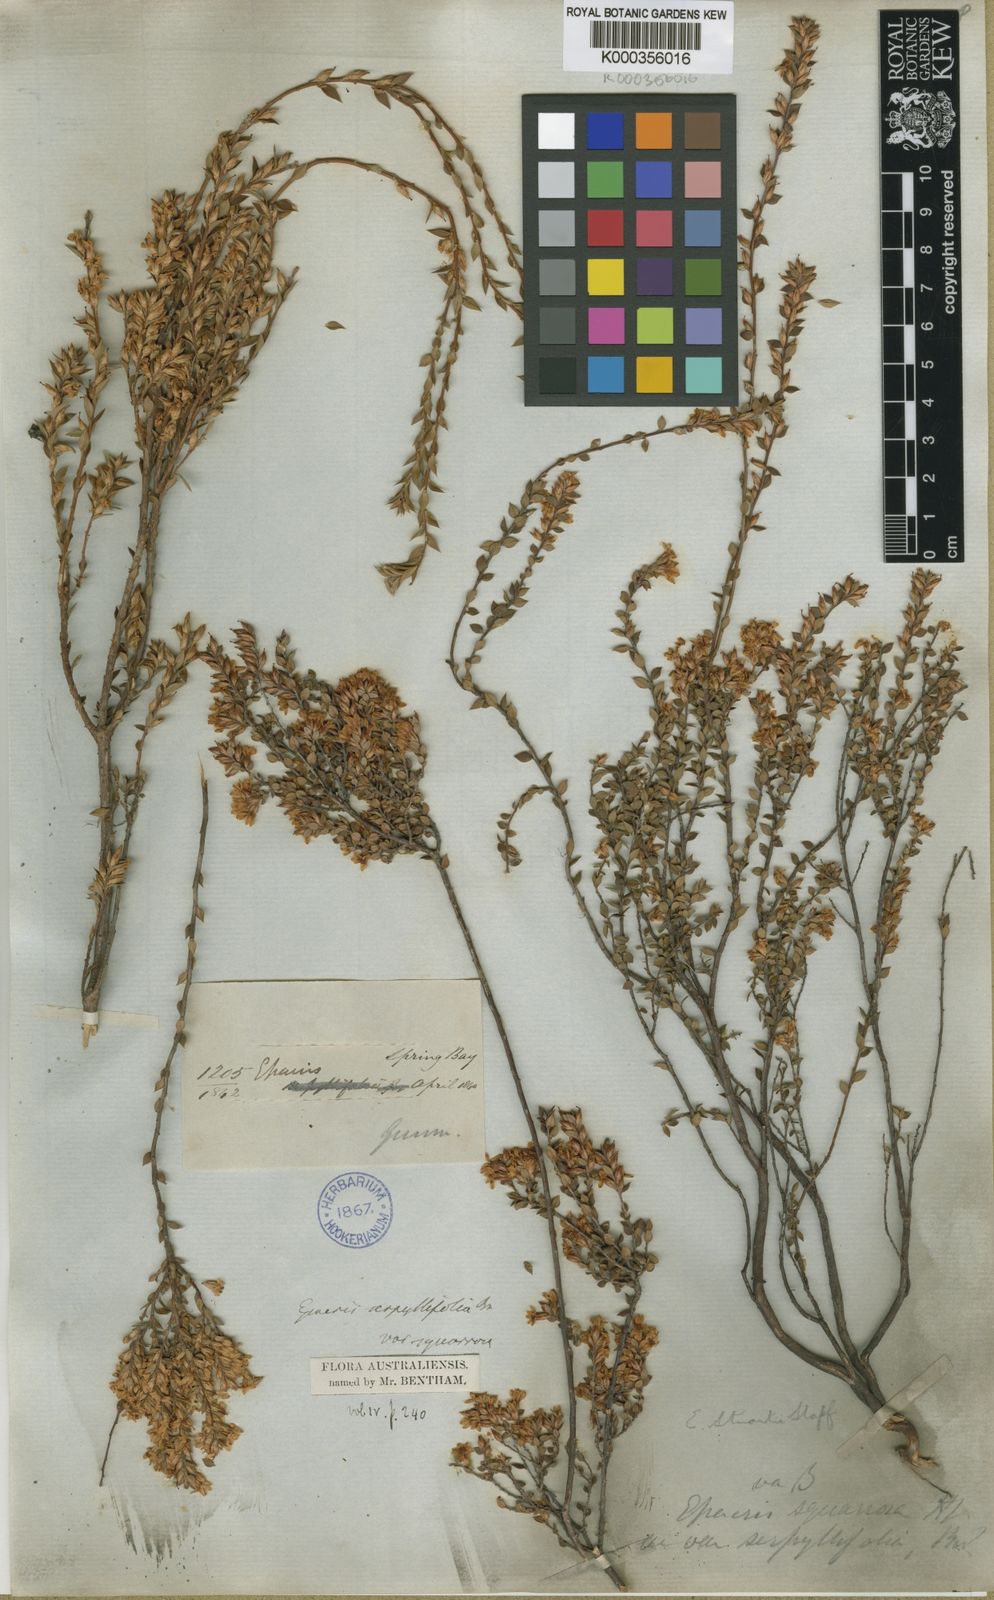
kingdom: Plantae
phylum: Tracheophyta
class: Magnoliopsida
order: Ericales
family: Ericaceae
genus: Epacris
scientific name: Epacris stuartii
